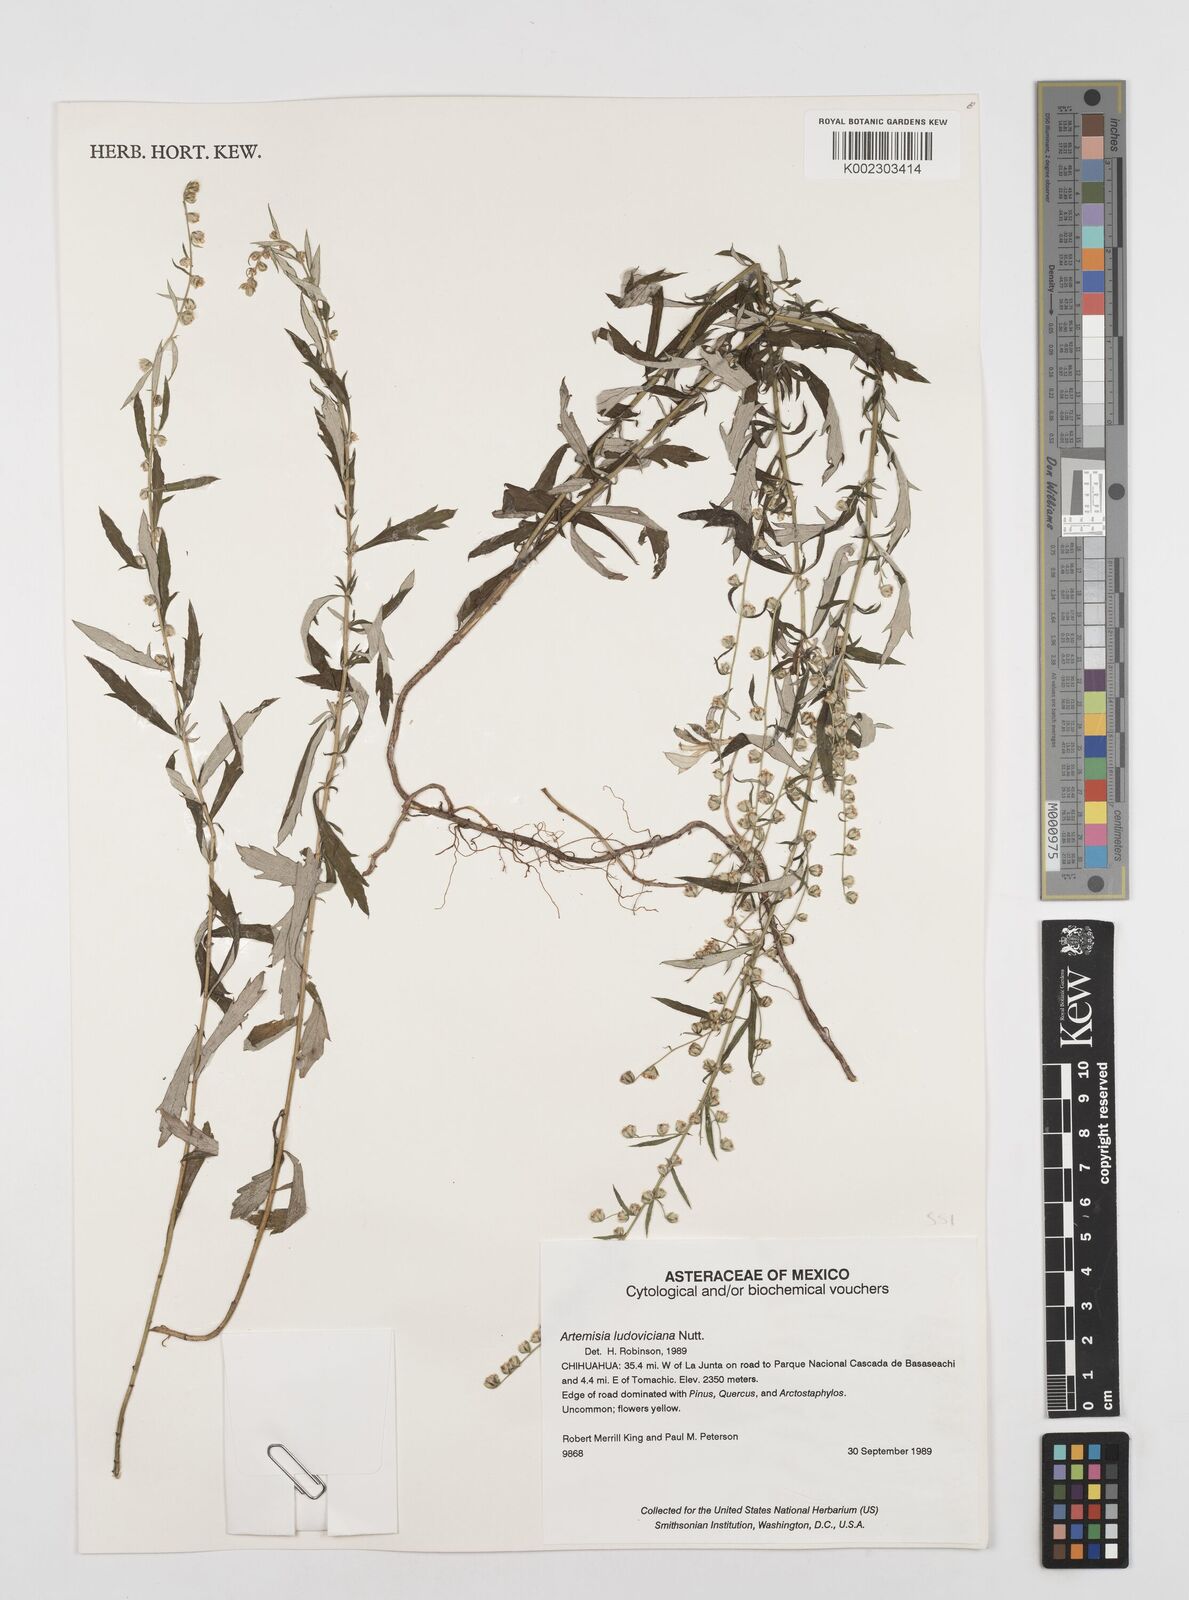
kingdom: Plantae
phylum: Tracheophyta
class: Magnoliopsida
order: Asterales
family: Asteraceae
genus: Artemisia
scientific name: Artemisia ludoviciana
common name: Western mugwort
